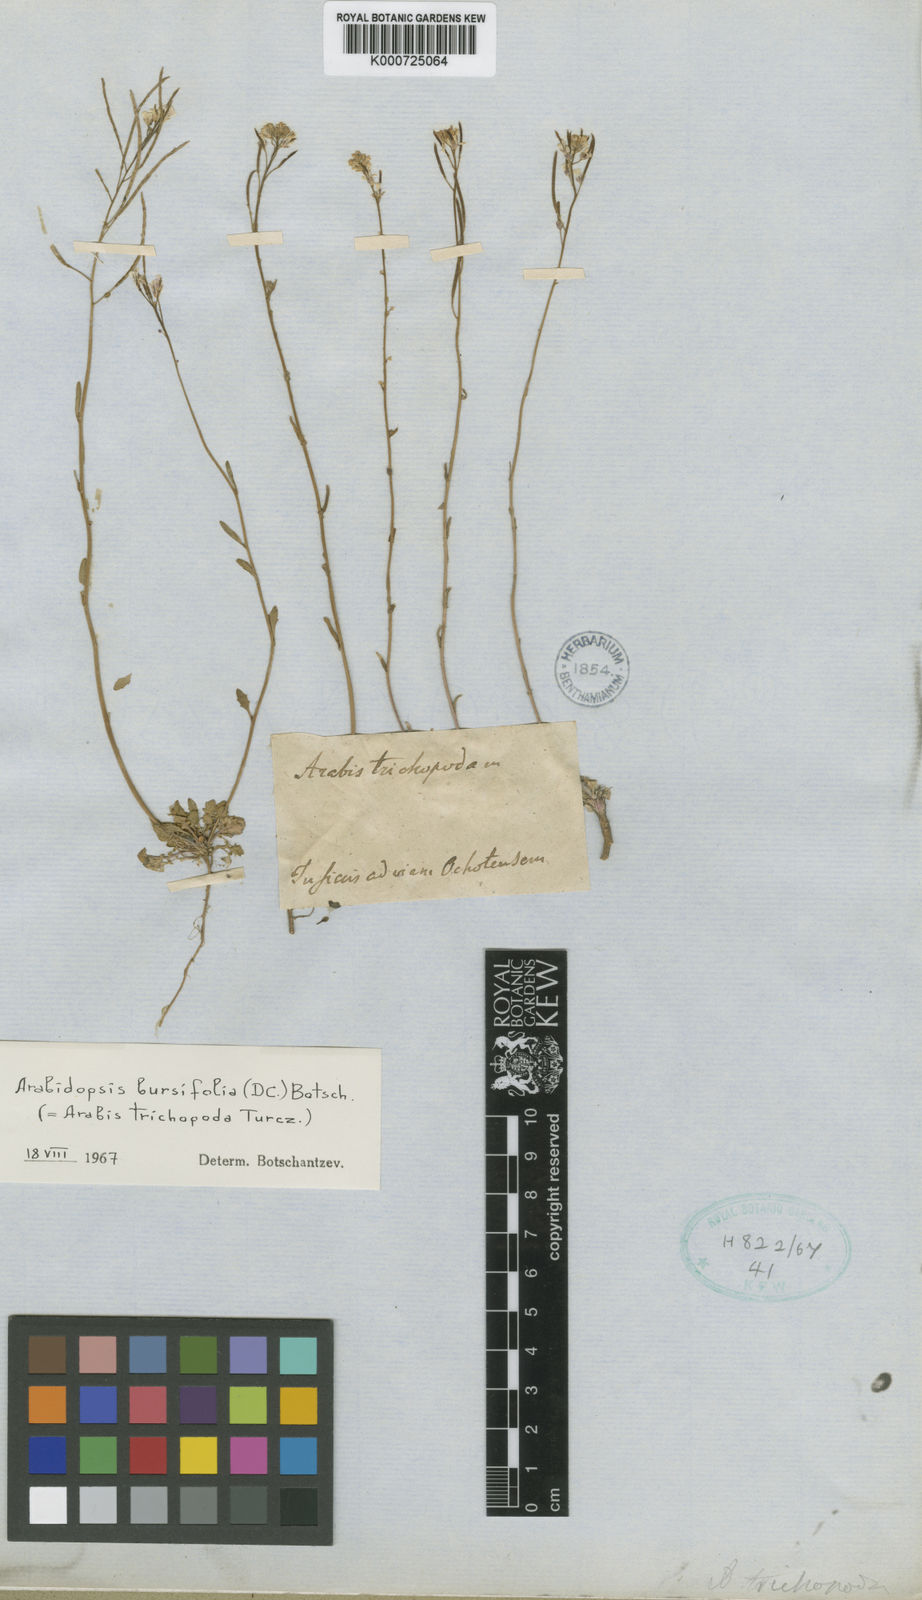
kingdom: Plantae
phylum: Tracheophyta
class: Magnoliopsida
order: Brassicales
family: Brassicaceae
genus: Crucihimalaya
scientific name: Crucihimalaya bursifolia
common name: Soft fissurewort
